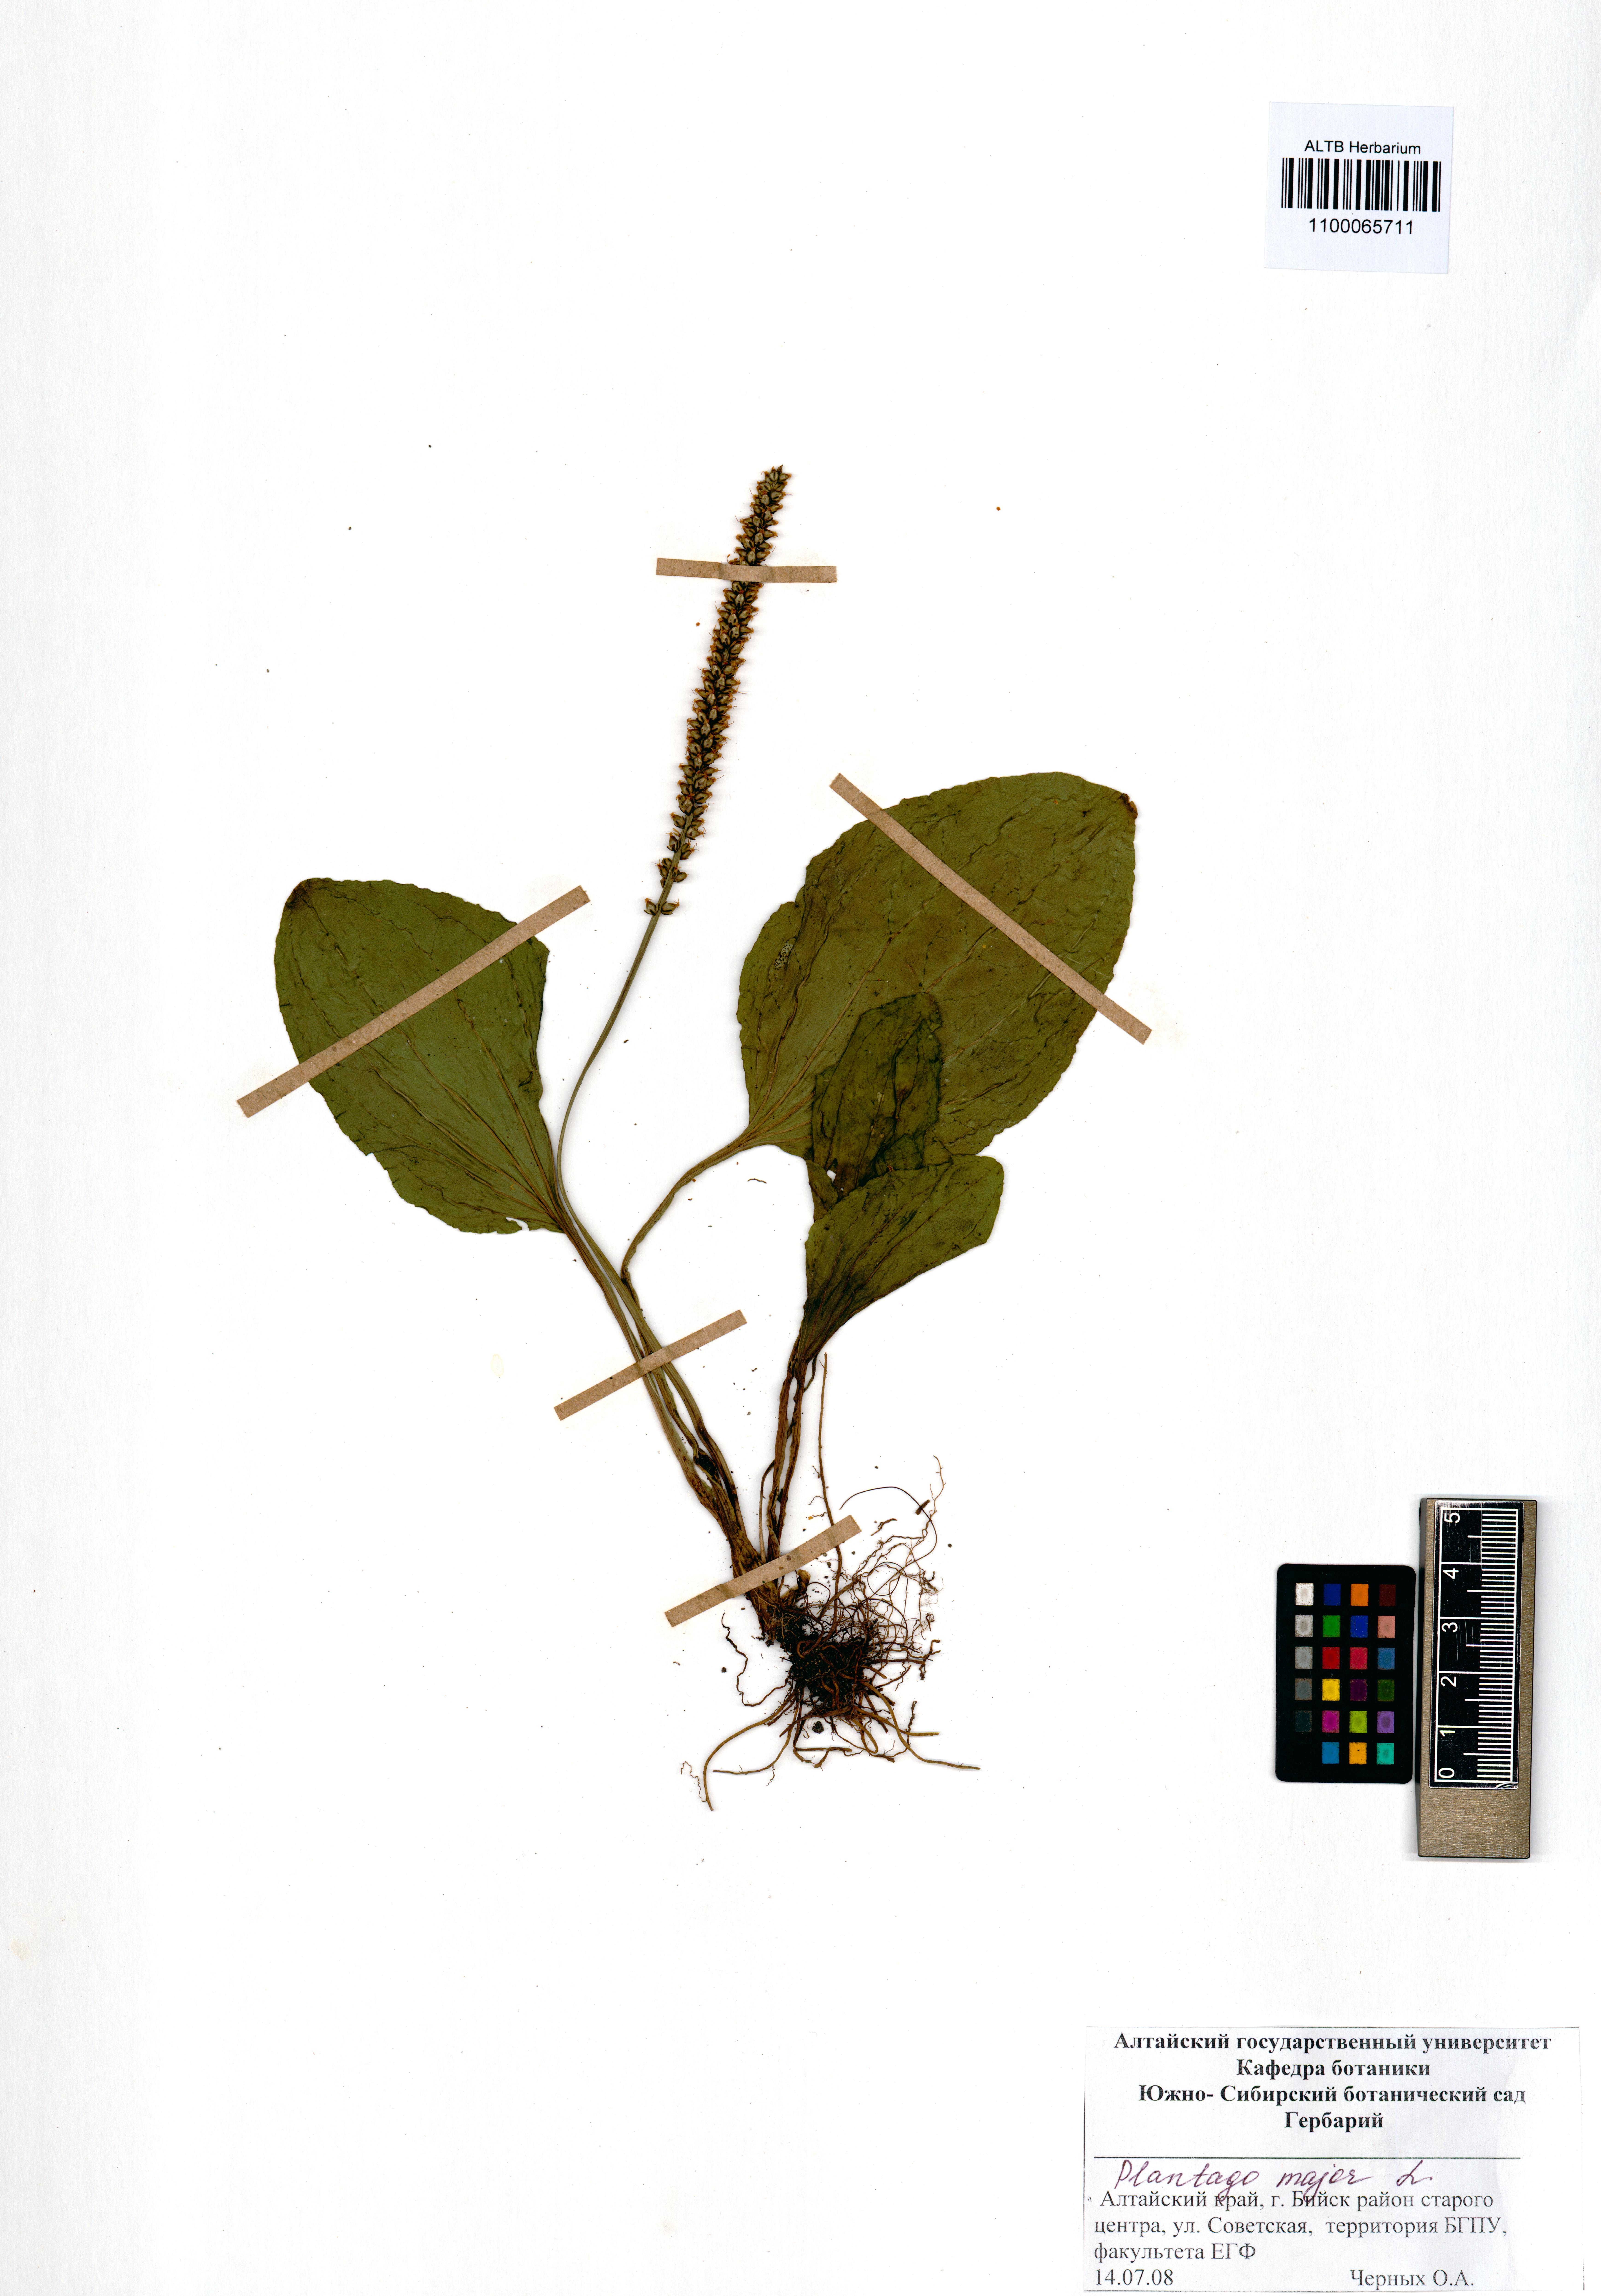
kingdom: Plantae
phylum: Tracheophyta
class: Magnoliopsida
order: Lamiales
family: Plantaginaceae
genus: Plantago
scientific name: Plantago major
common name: Common plantain
